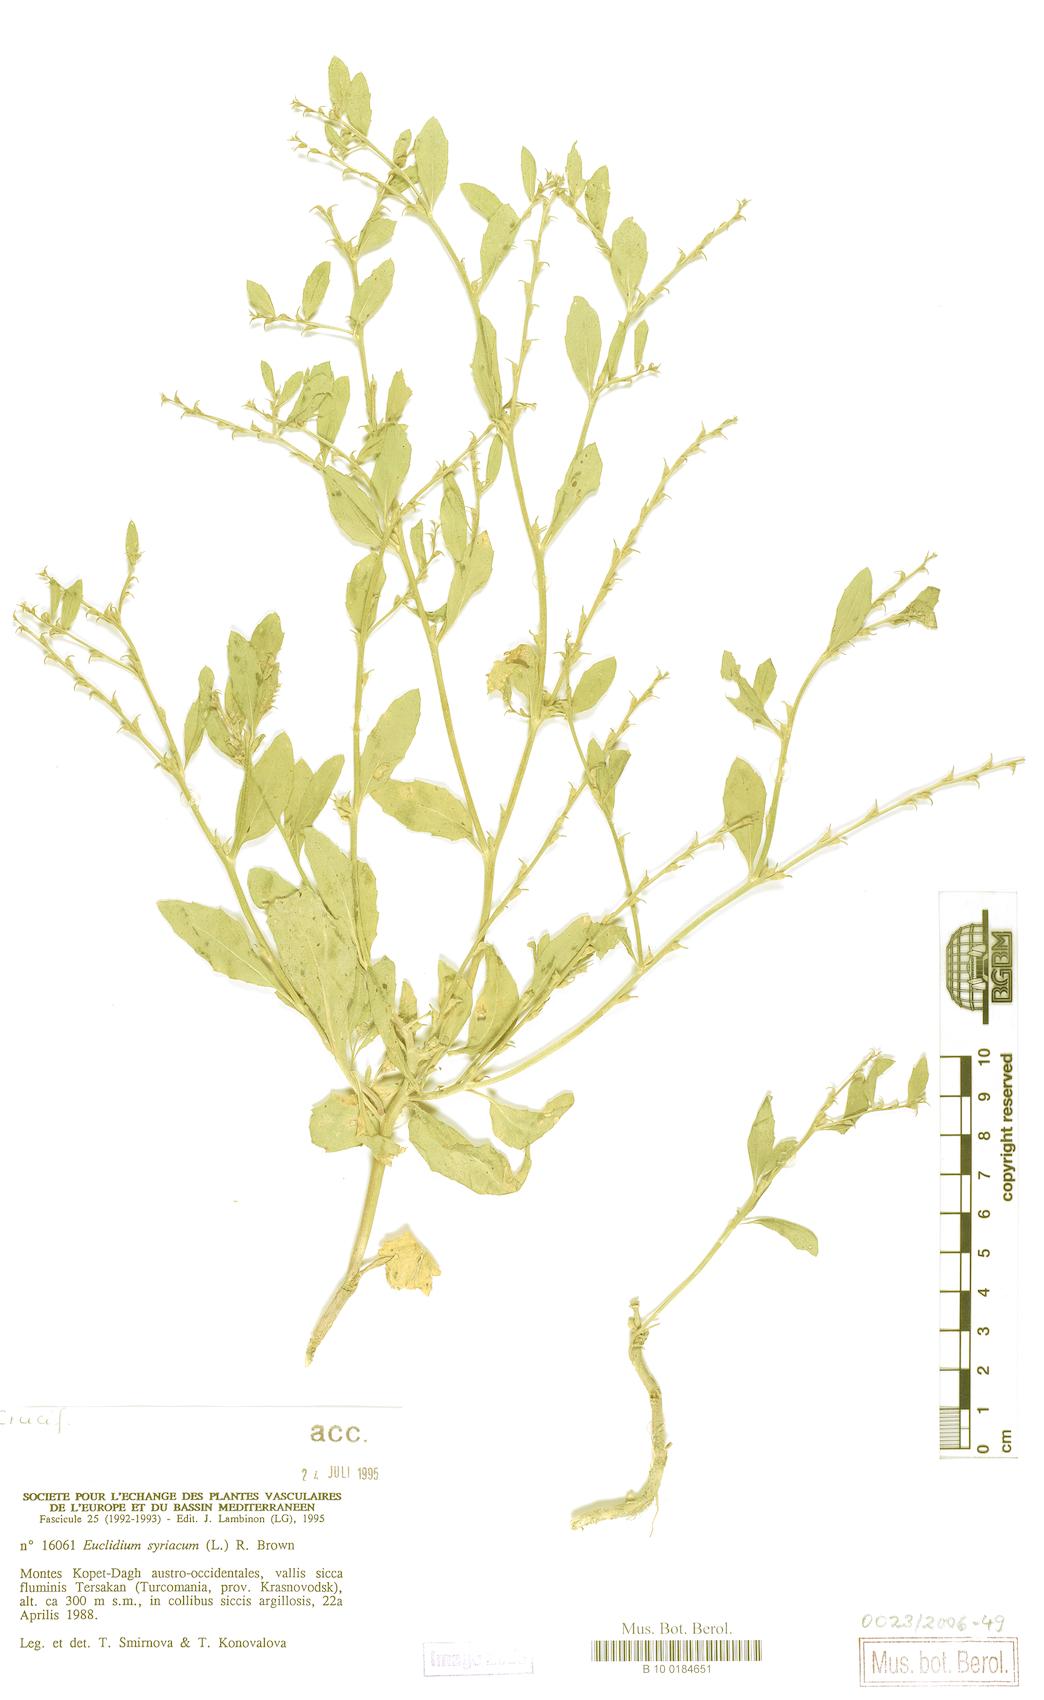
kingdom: Plantae
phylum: Tracheophyta
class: Magnoliopsida
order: Brassicales
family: Brassicaceae
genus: Euclidium
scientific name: Euclidium syriacum
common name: Syrian mustard
